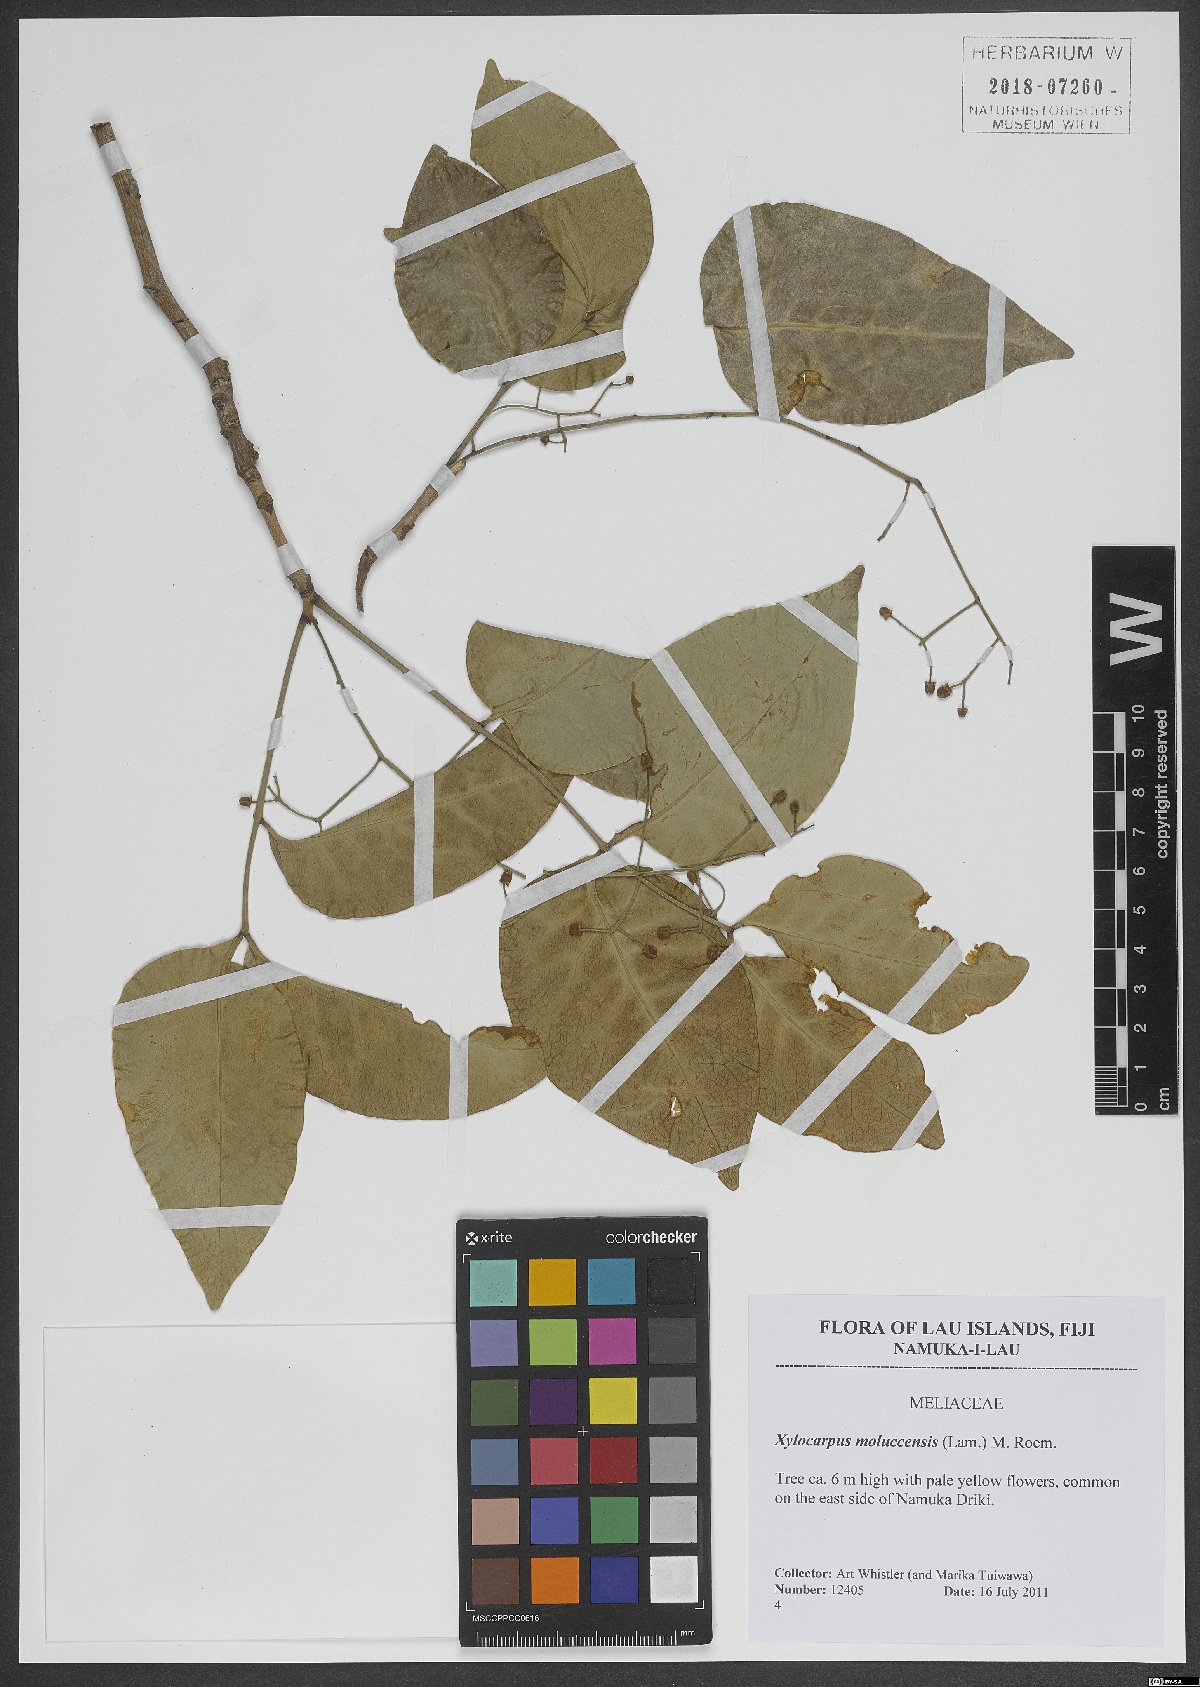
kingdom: Plantae
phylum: Tracheophyta
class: Magnoliopsida
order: Sapindales
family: Meliaceae
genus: Xylocarpus
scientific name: Xylocarpus moluccensis
